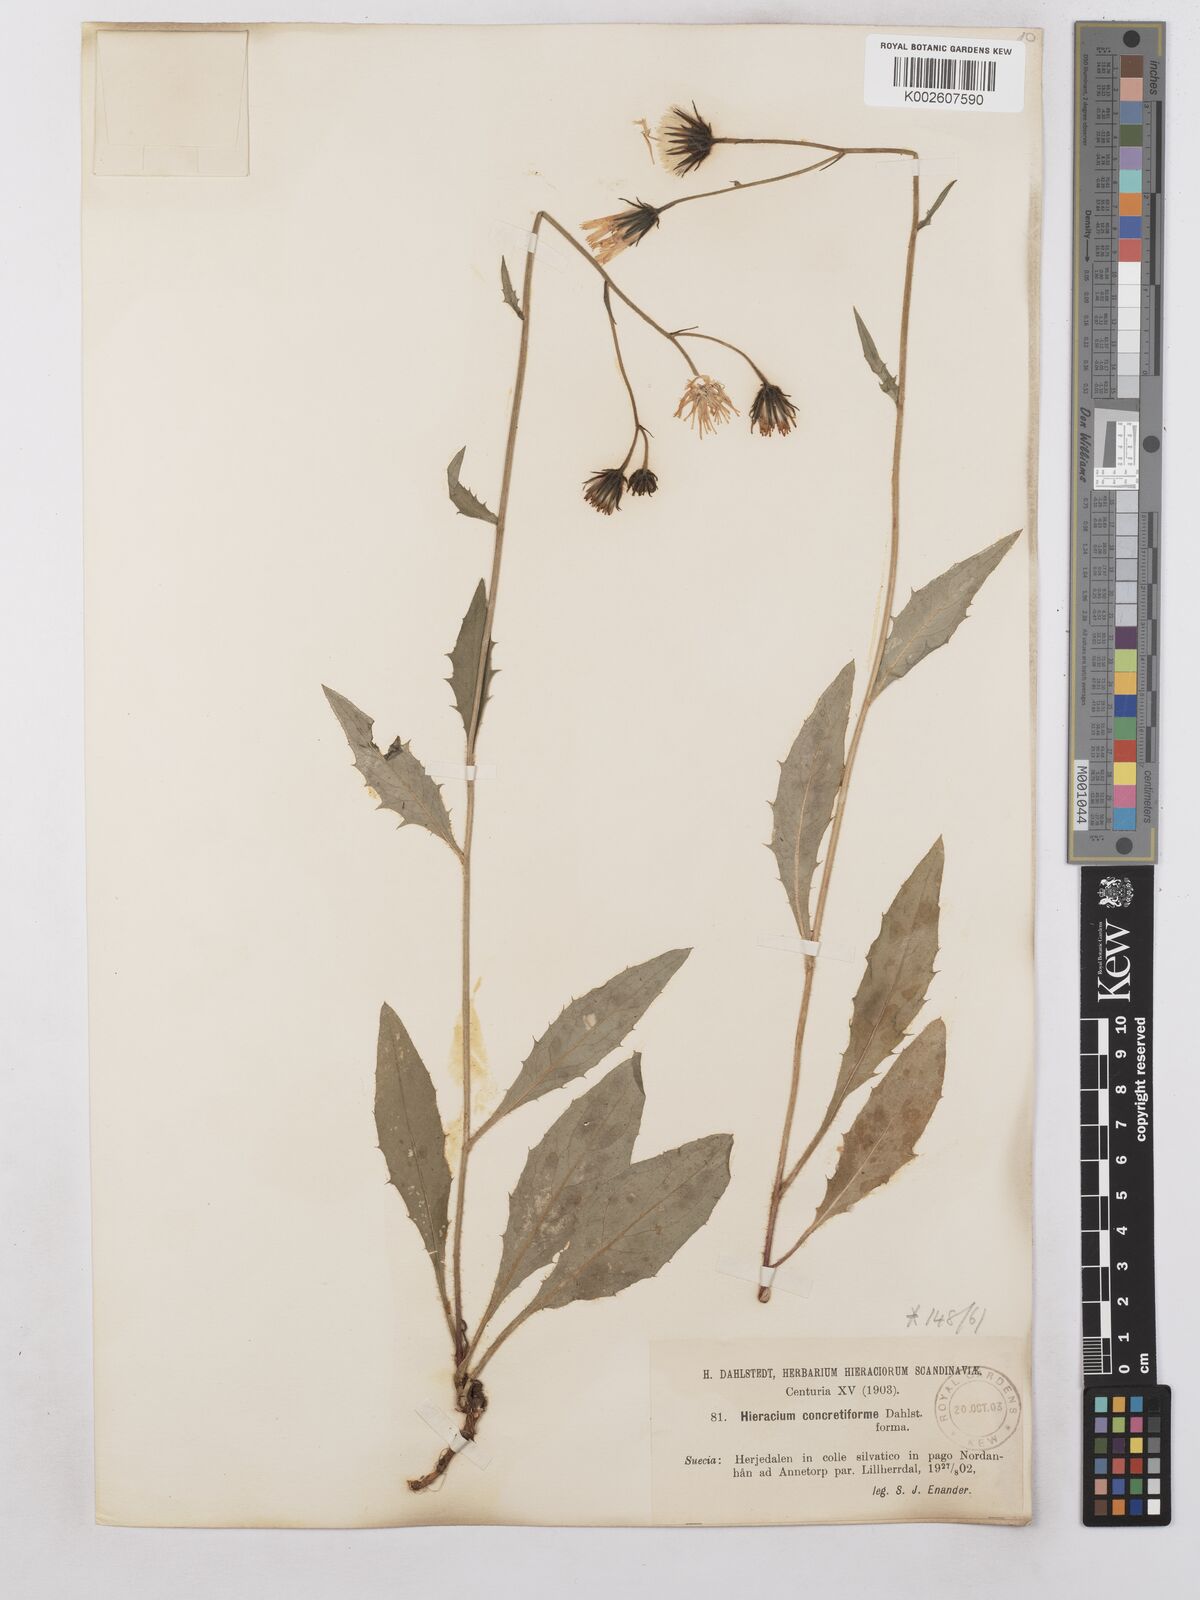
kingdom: Plantae
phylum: Tracheophyta
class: Magnoliopsida
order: Asterales
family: Asteraceae
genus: Hieracium
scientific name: Hieracium subramosum
